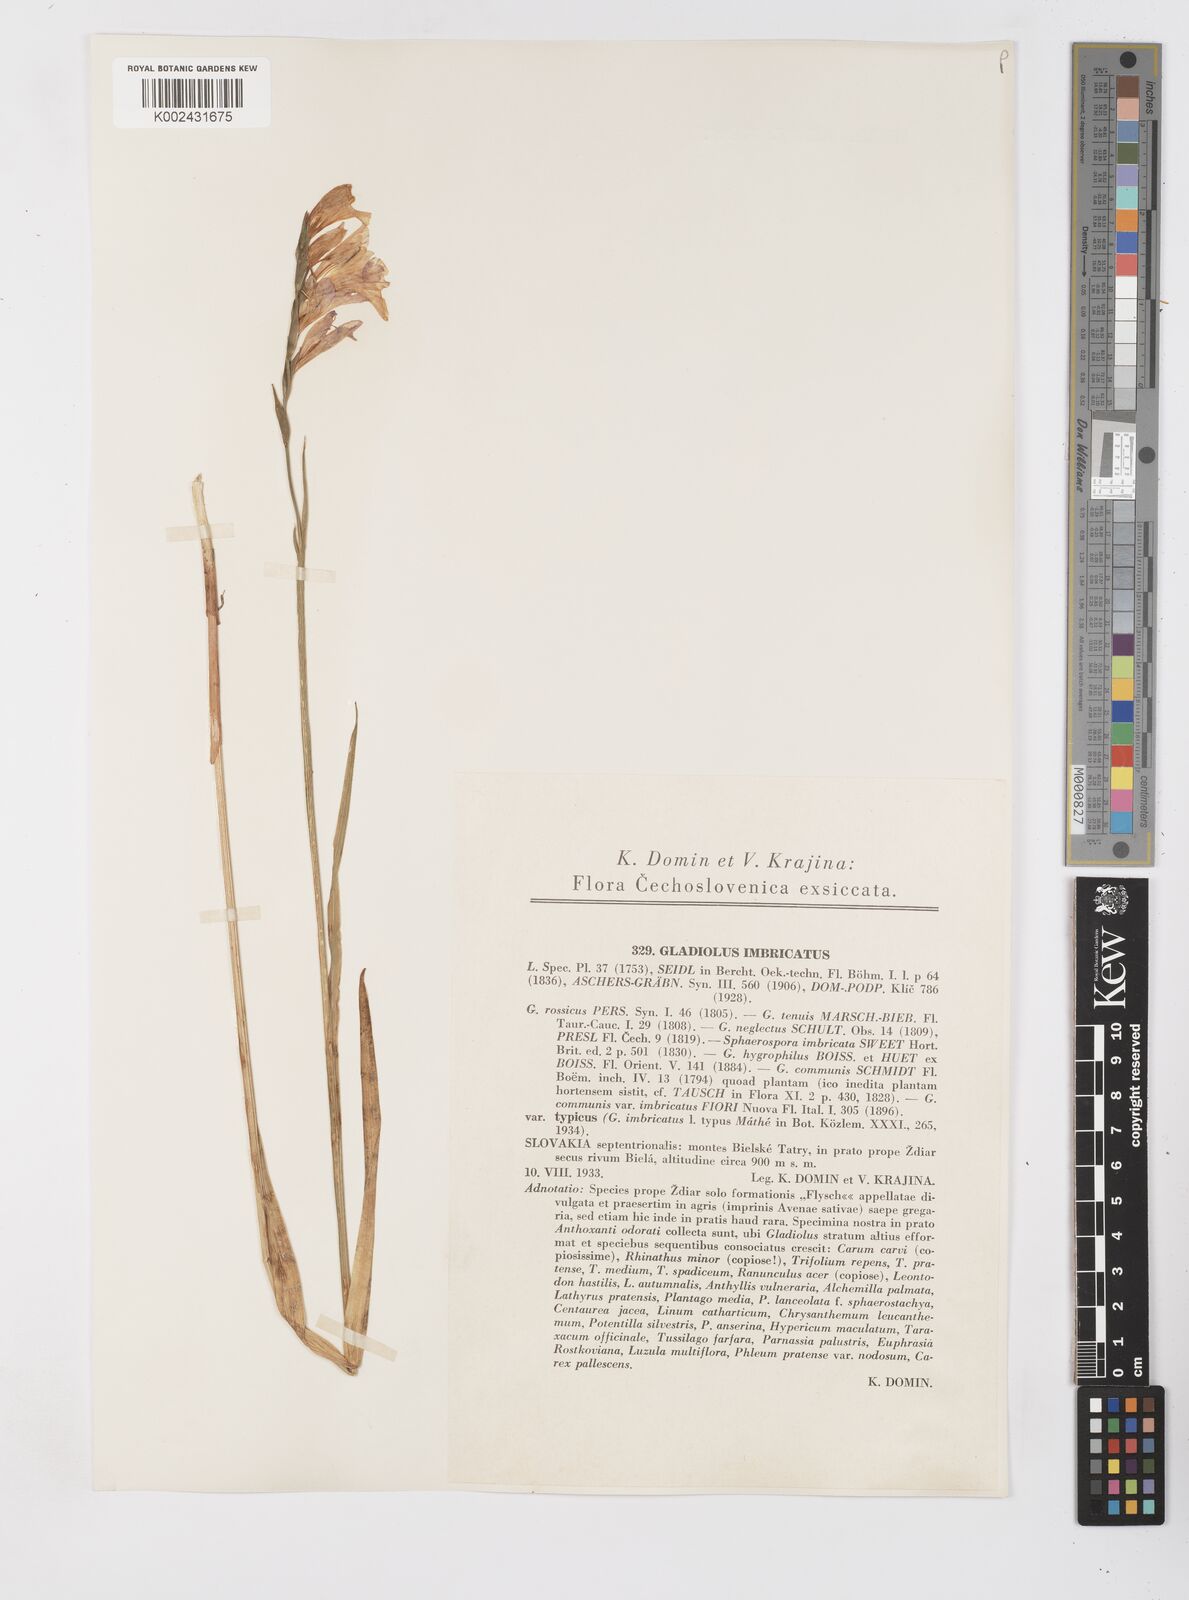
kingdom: Plantae
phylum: Tracheophyta
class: Liliopsida
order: Asparagales
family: Iridaceae
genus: Gladiolus
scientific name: Gladiolus imbricatus
